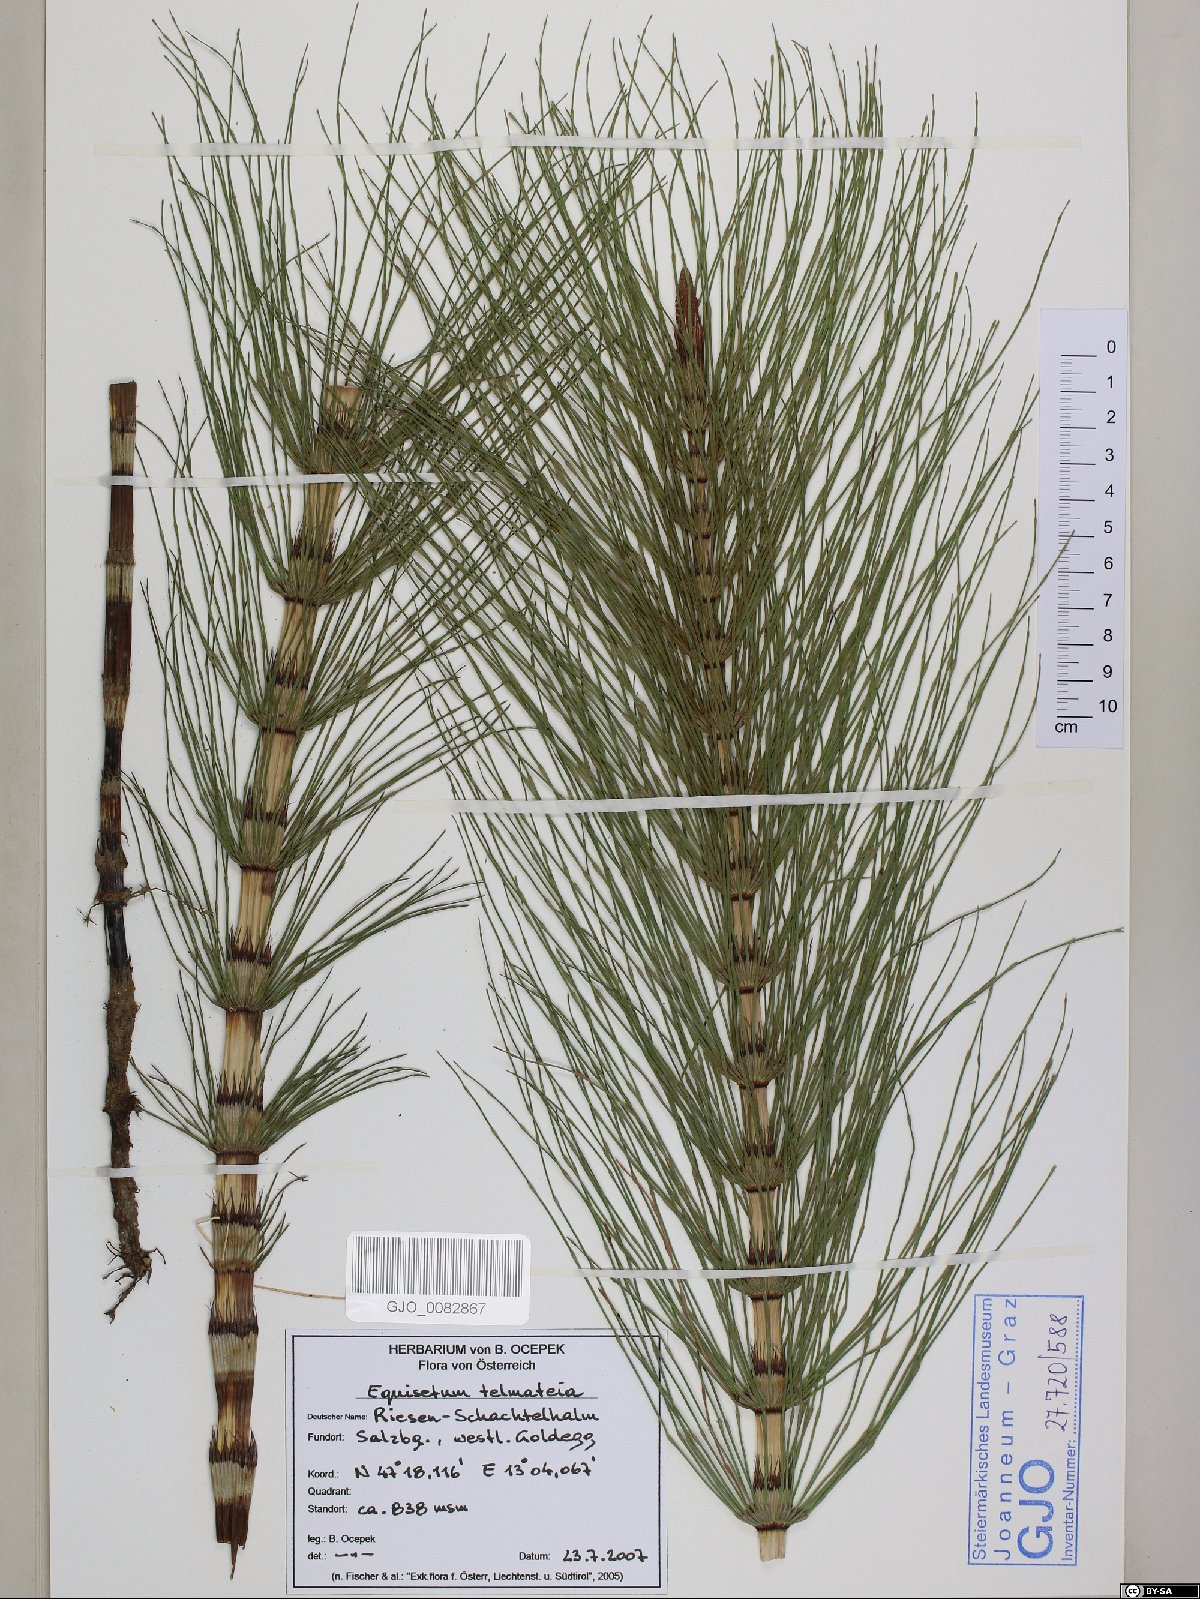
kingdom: Plantae
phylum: Tracheophyta
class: Polypodiopsida
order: Equisetales
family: Equisetaceae
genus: Equisetum
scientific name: Equisetum telmateia
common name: Great horsetail
